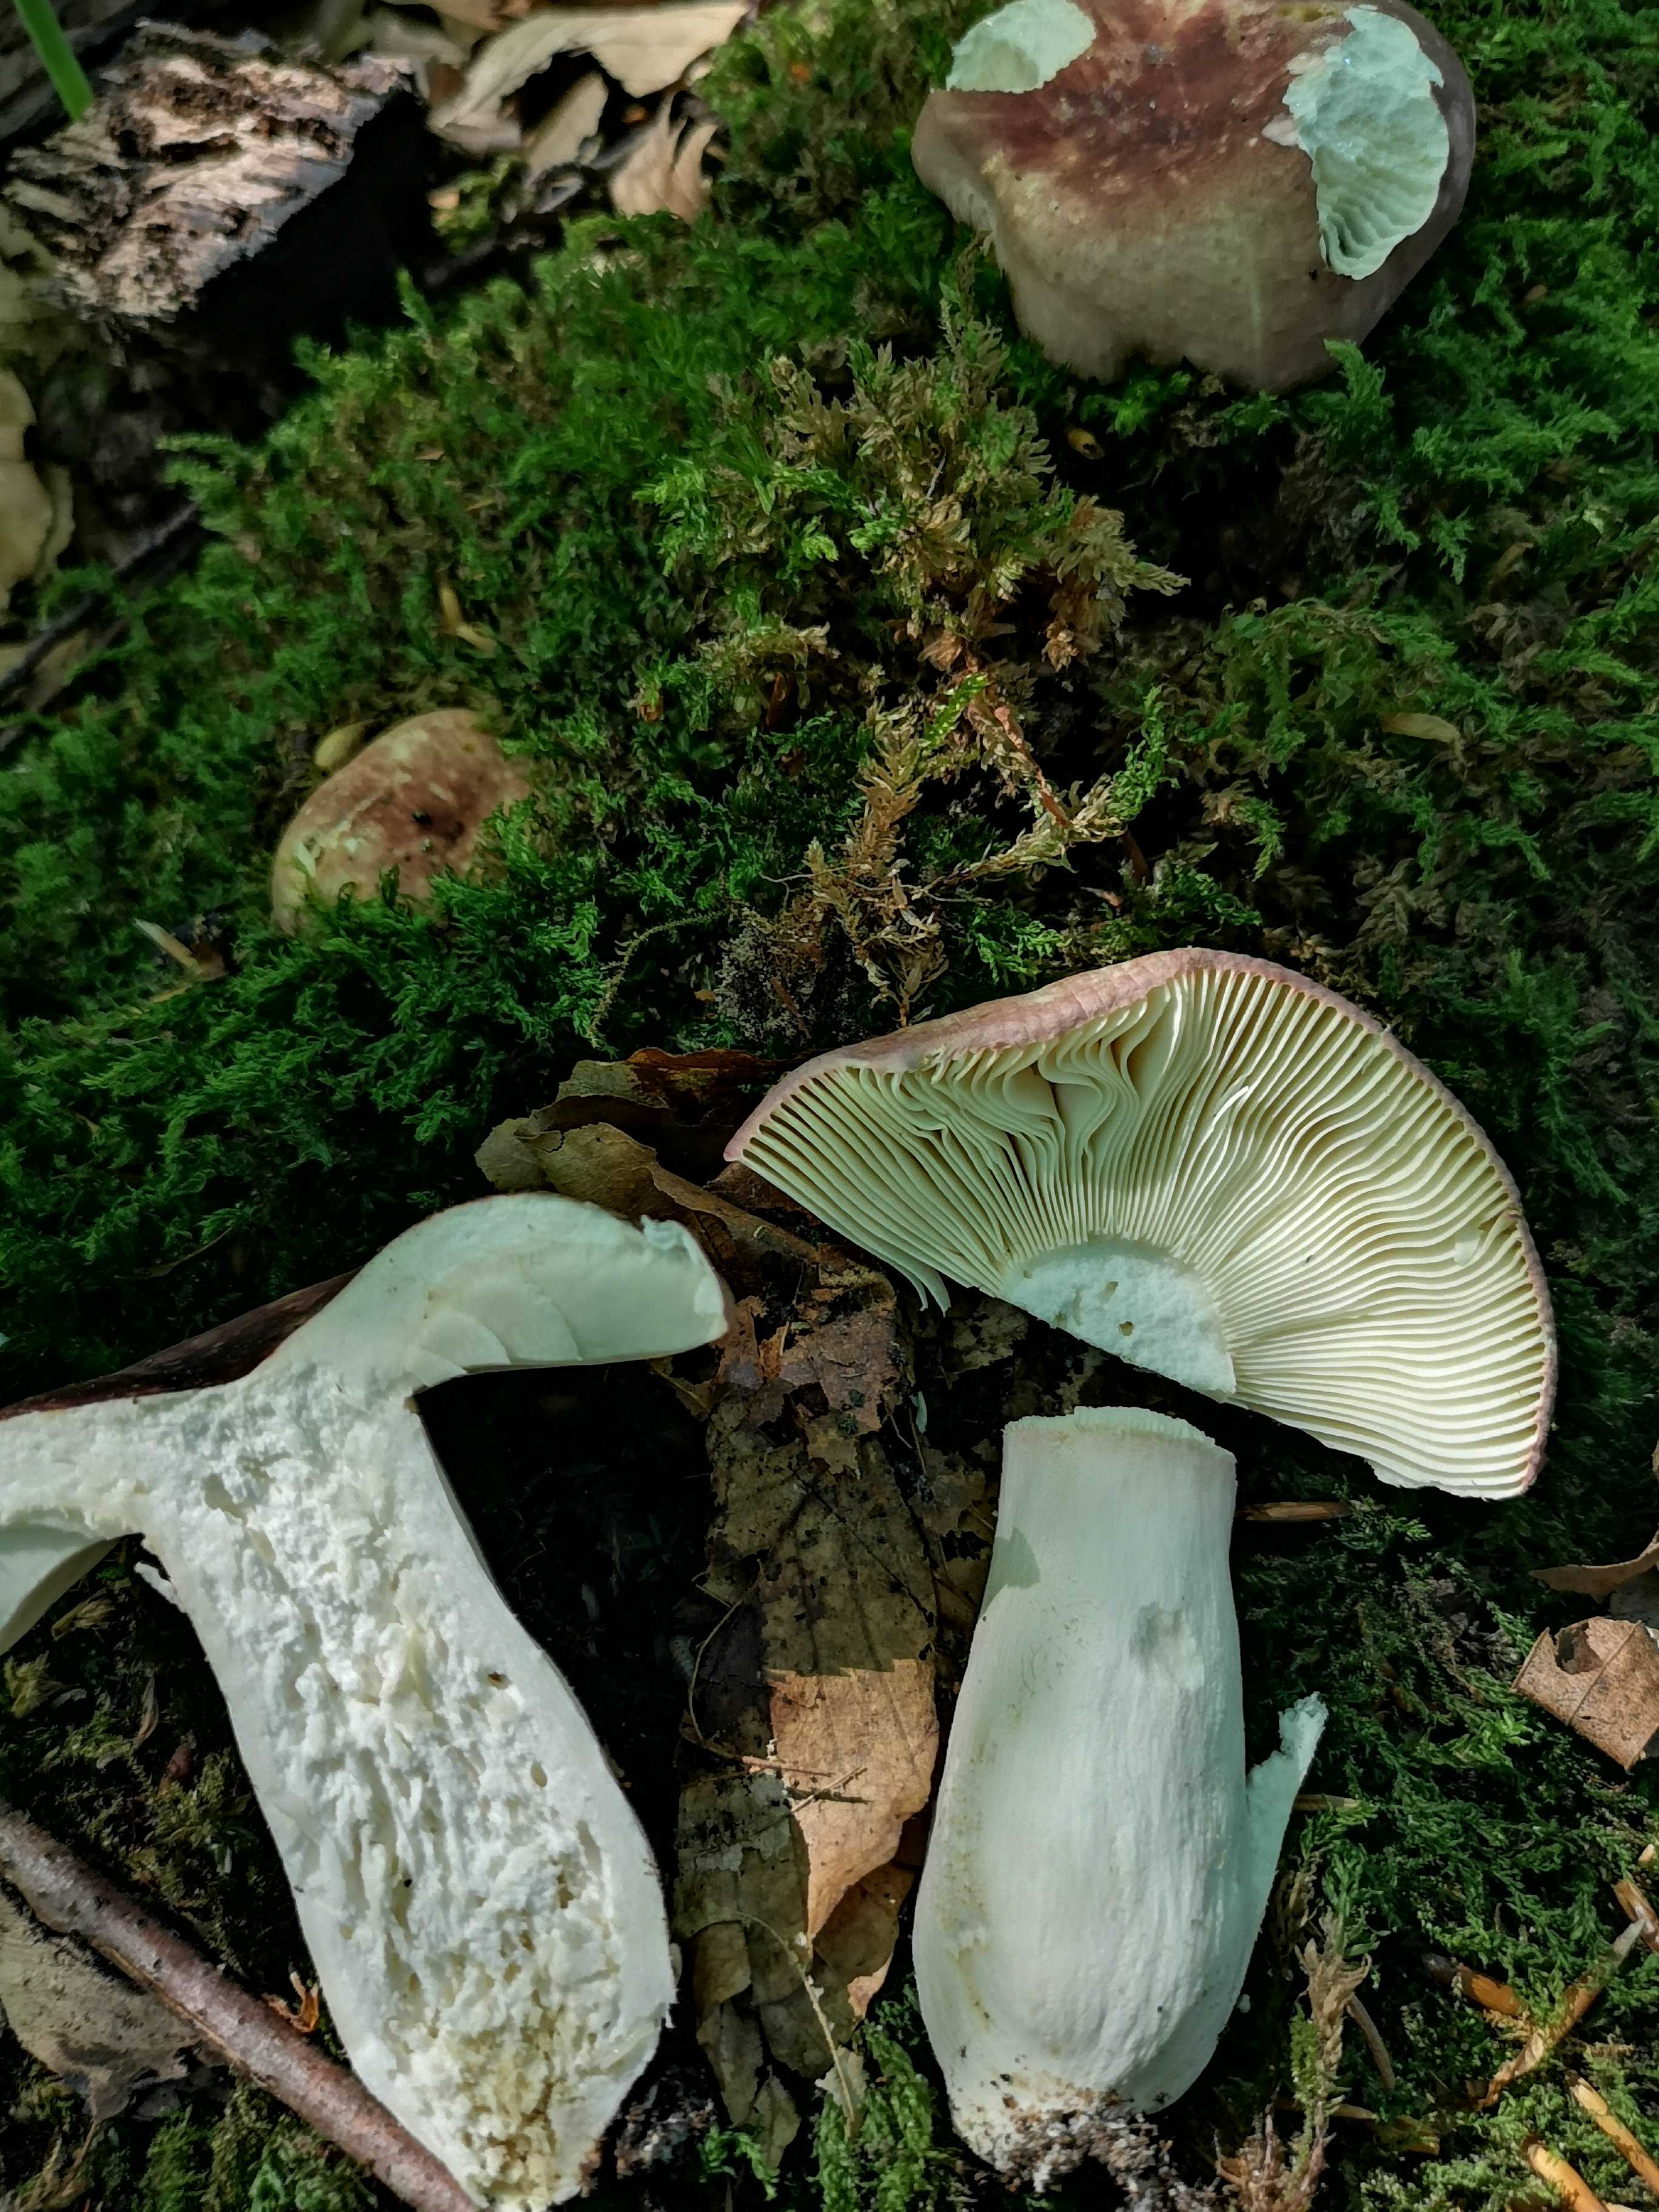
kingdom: Fungi
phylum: Basidiomycota
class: Agaricomycetes
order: Russulales
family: Russulaceae
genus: Russula
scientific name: Russula olivacea
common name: stor skørhat
